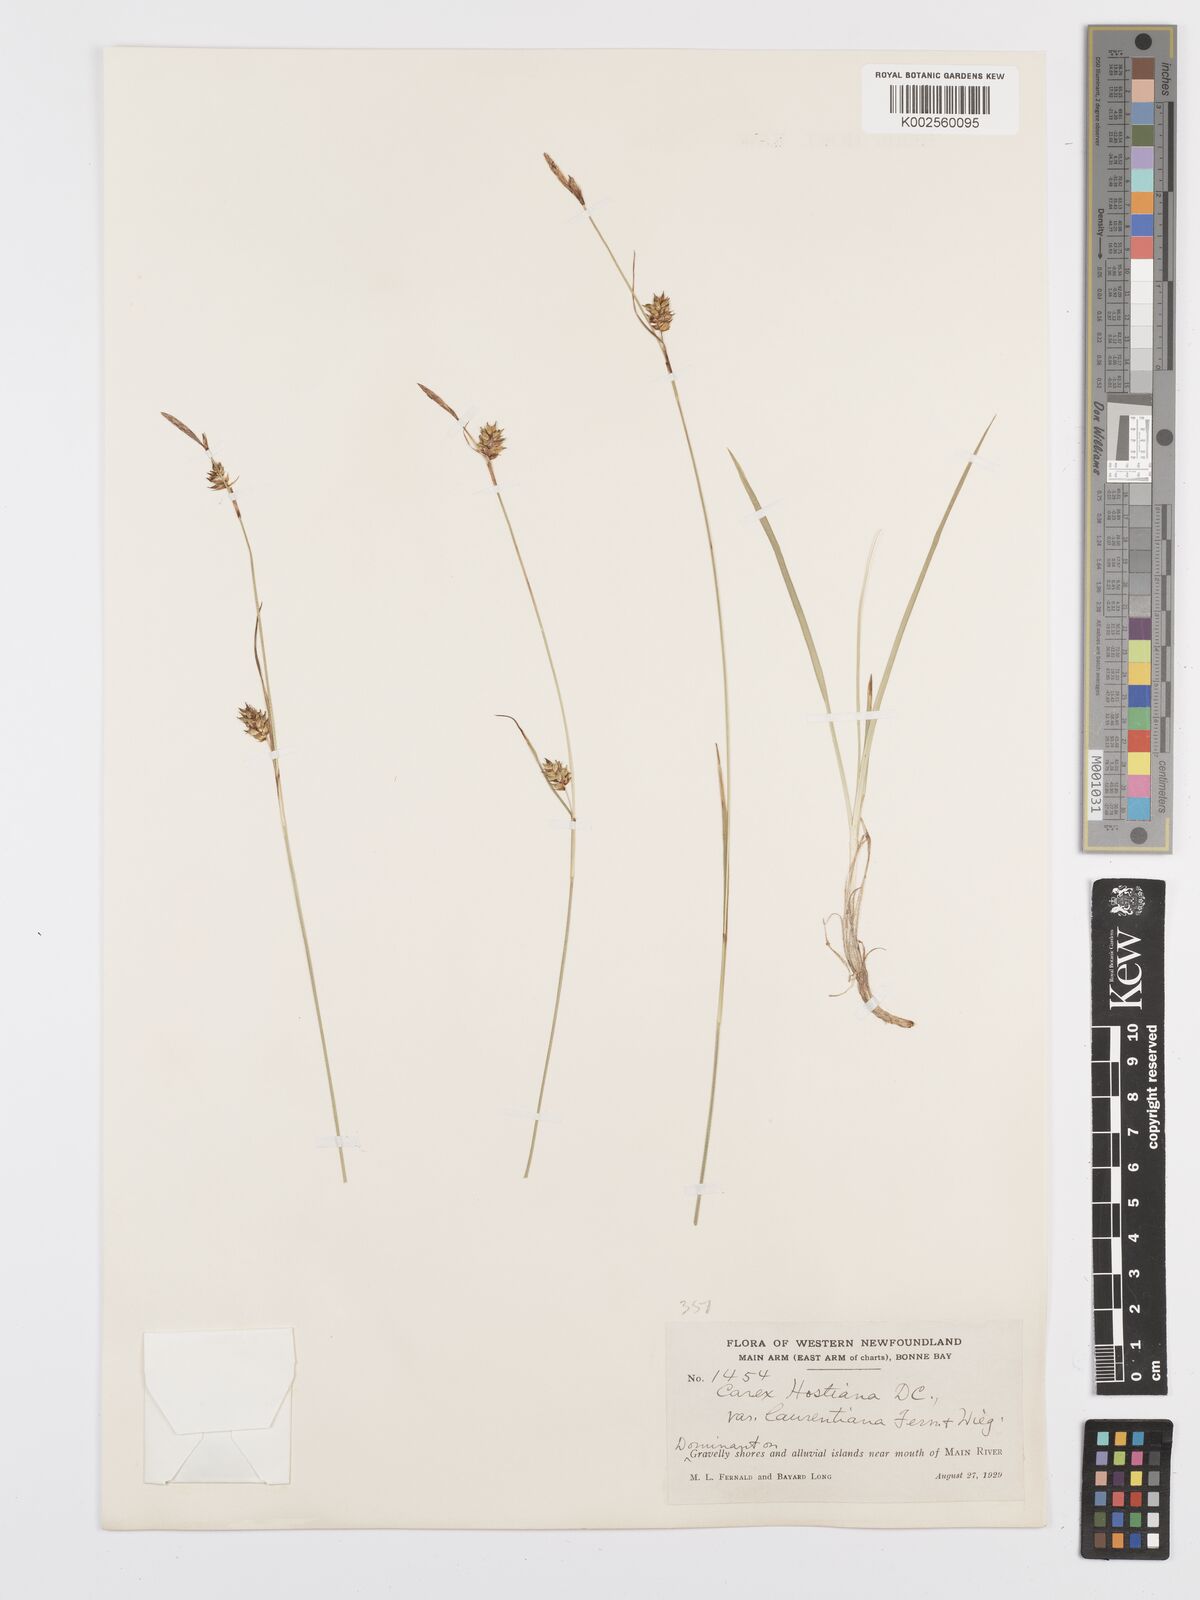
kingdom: Plantae
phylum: Tracheophyta
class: Liliopsida
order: Poales
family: Cyperaceae
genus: Carex
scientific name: Carex hostiana
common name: Tawny sedge
